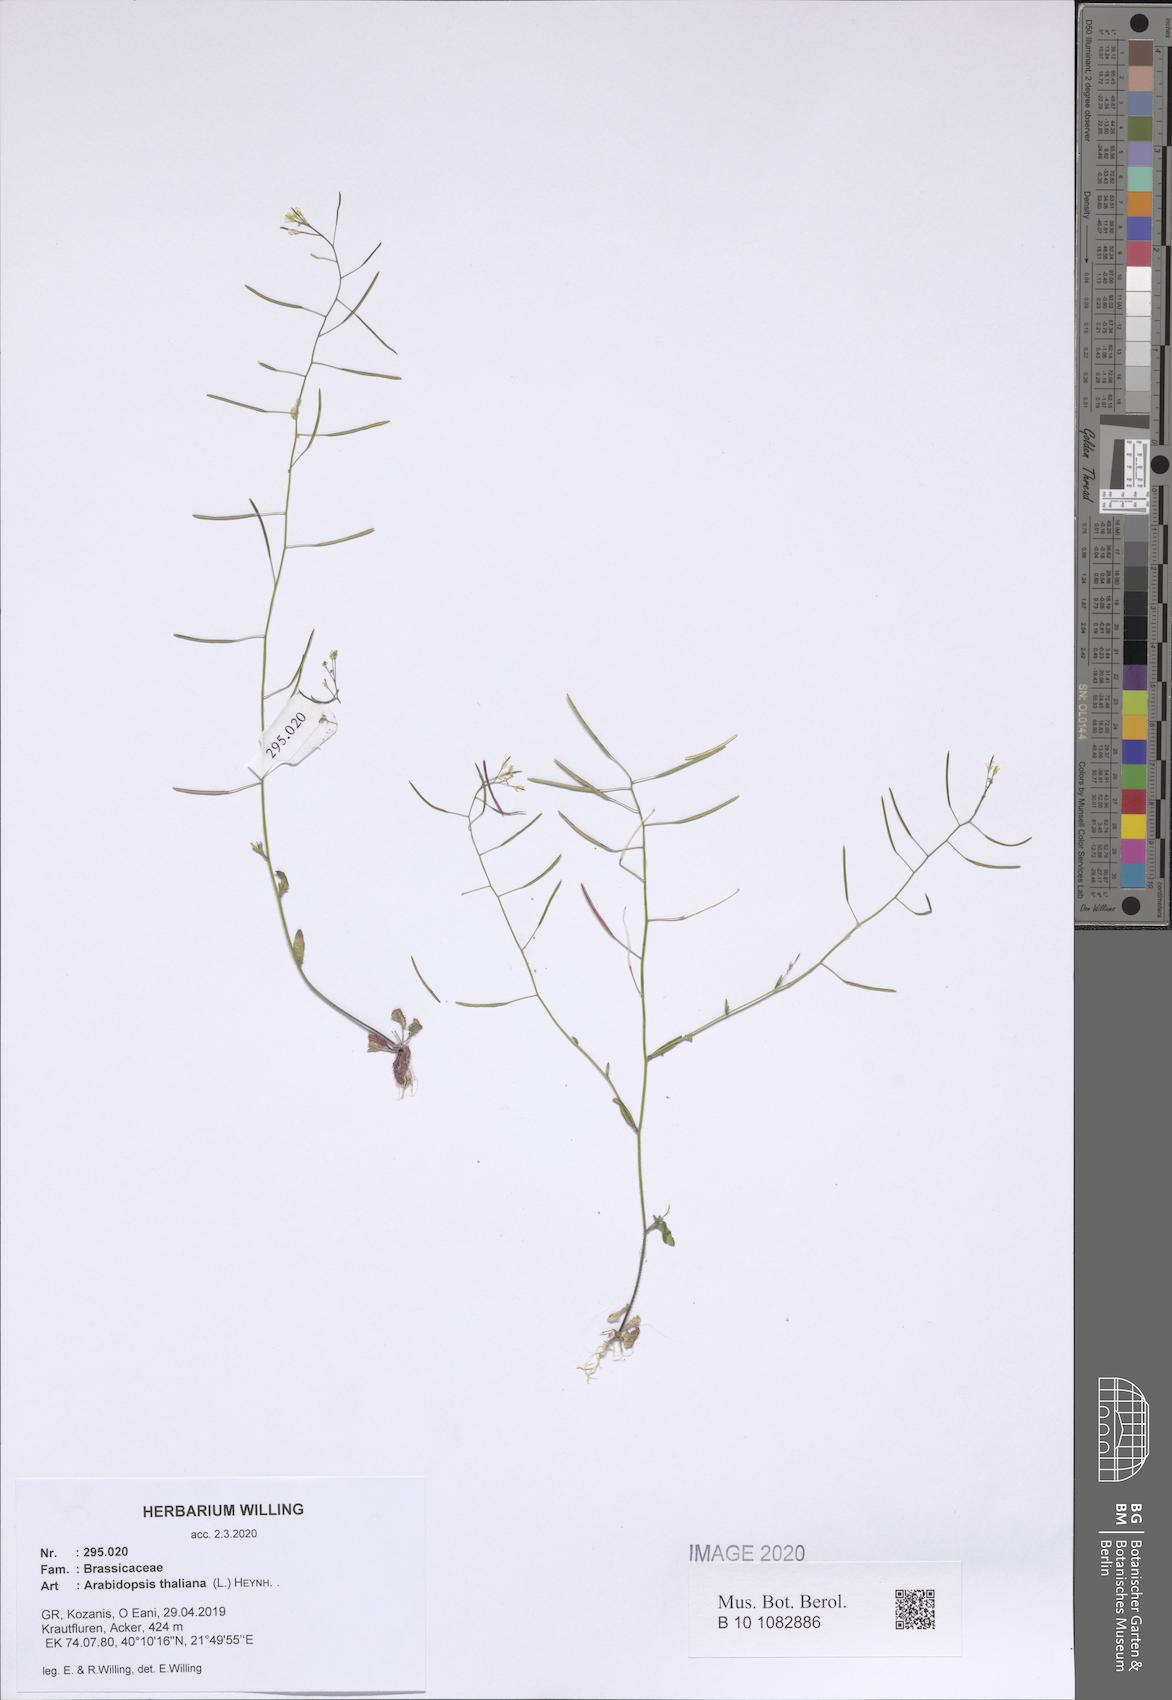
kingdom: Plantae
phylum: Tracheophyta
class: Magnoliopsida
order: Brassicales
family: Brassicaceae
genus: Arabidopsis
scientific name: Arabidopsis thaliana
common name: Thale cress
